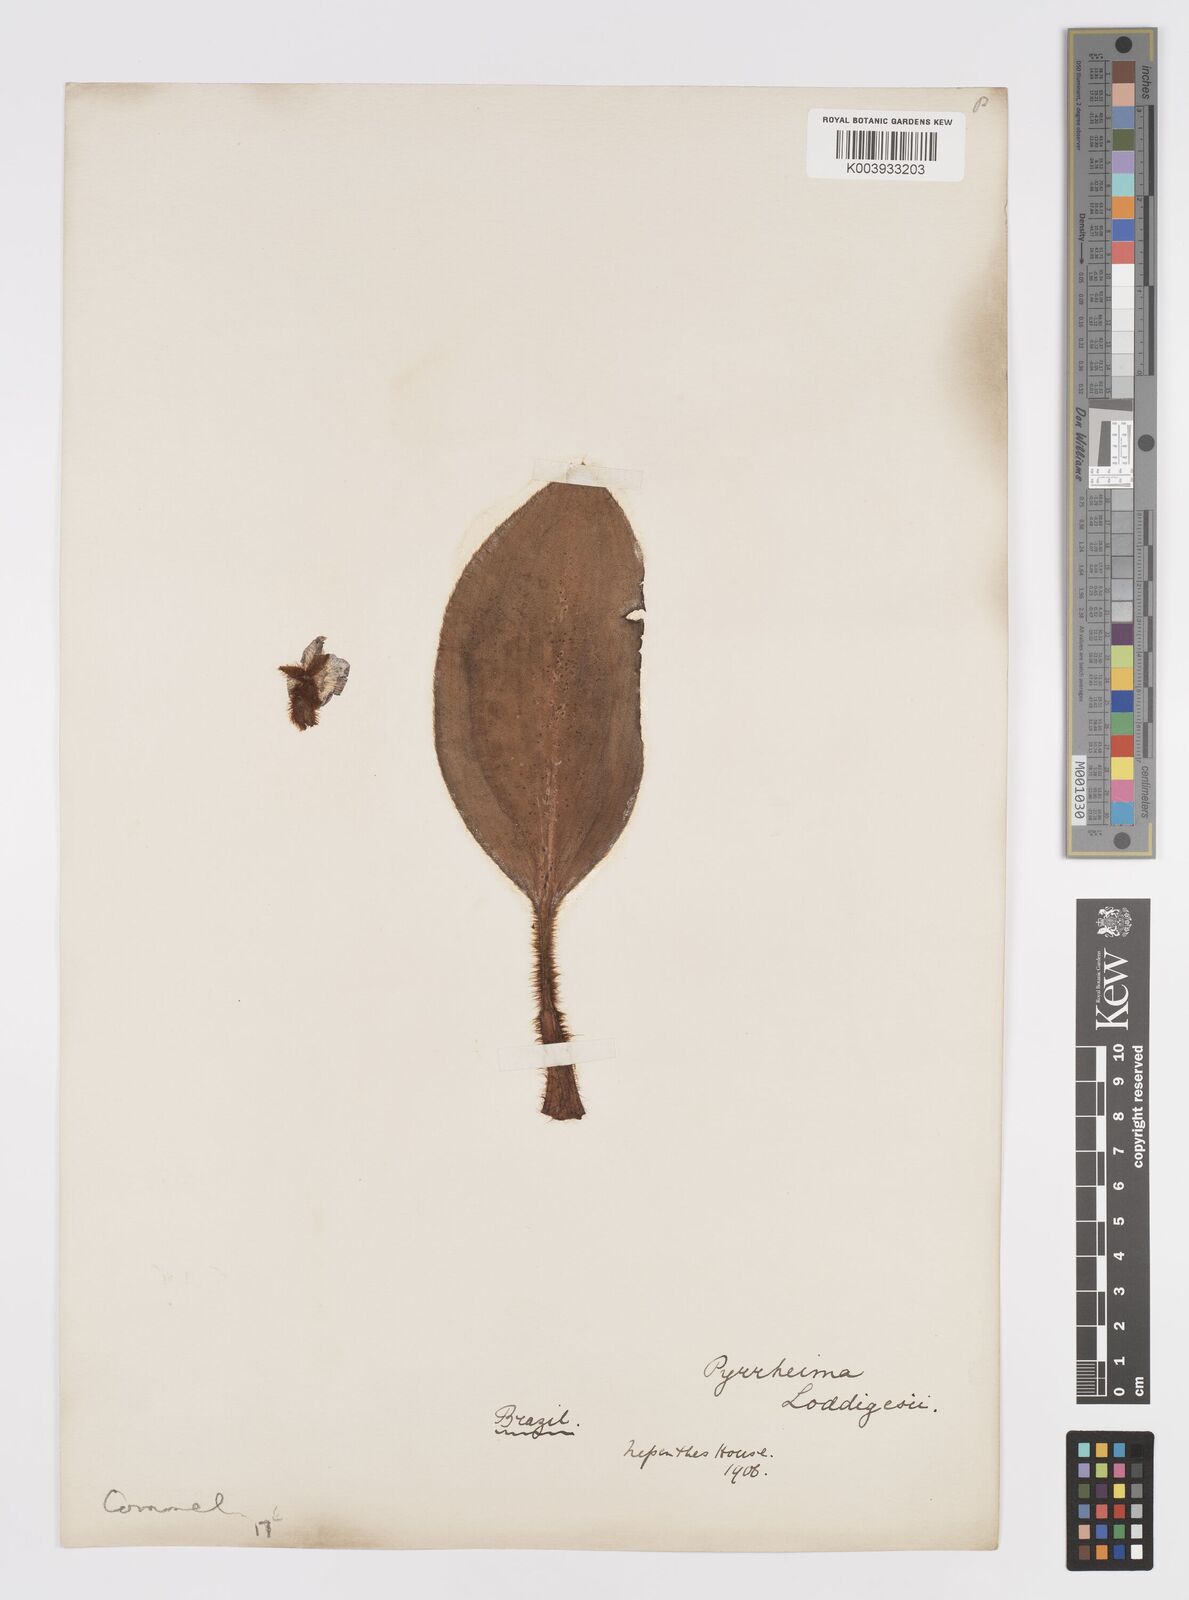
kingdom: Plantae
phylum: Tracheophyta
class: Liliopsida
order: Commelinales
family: Commelinaceae
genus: Siderasis
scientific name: Siderasis fuscata
